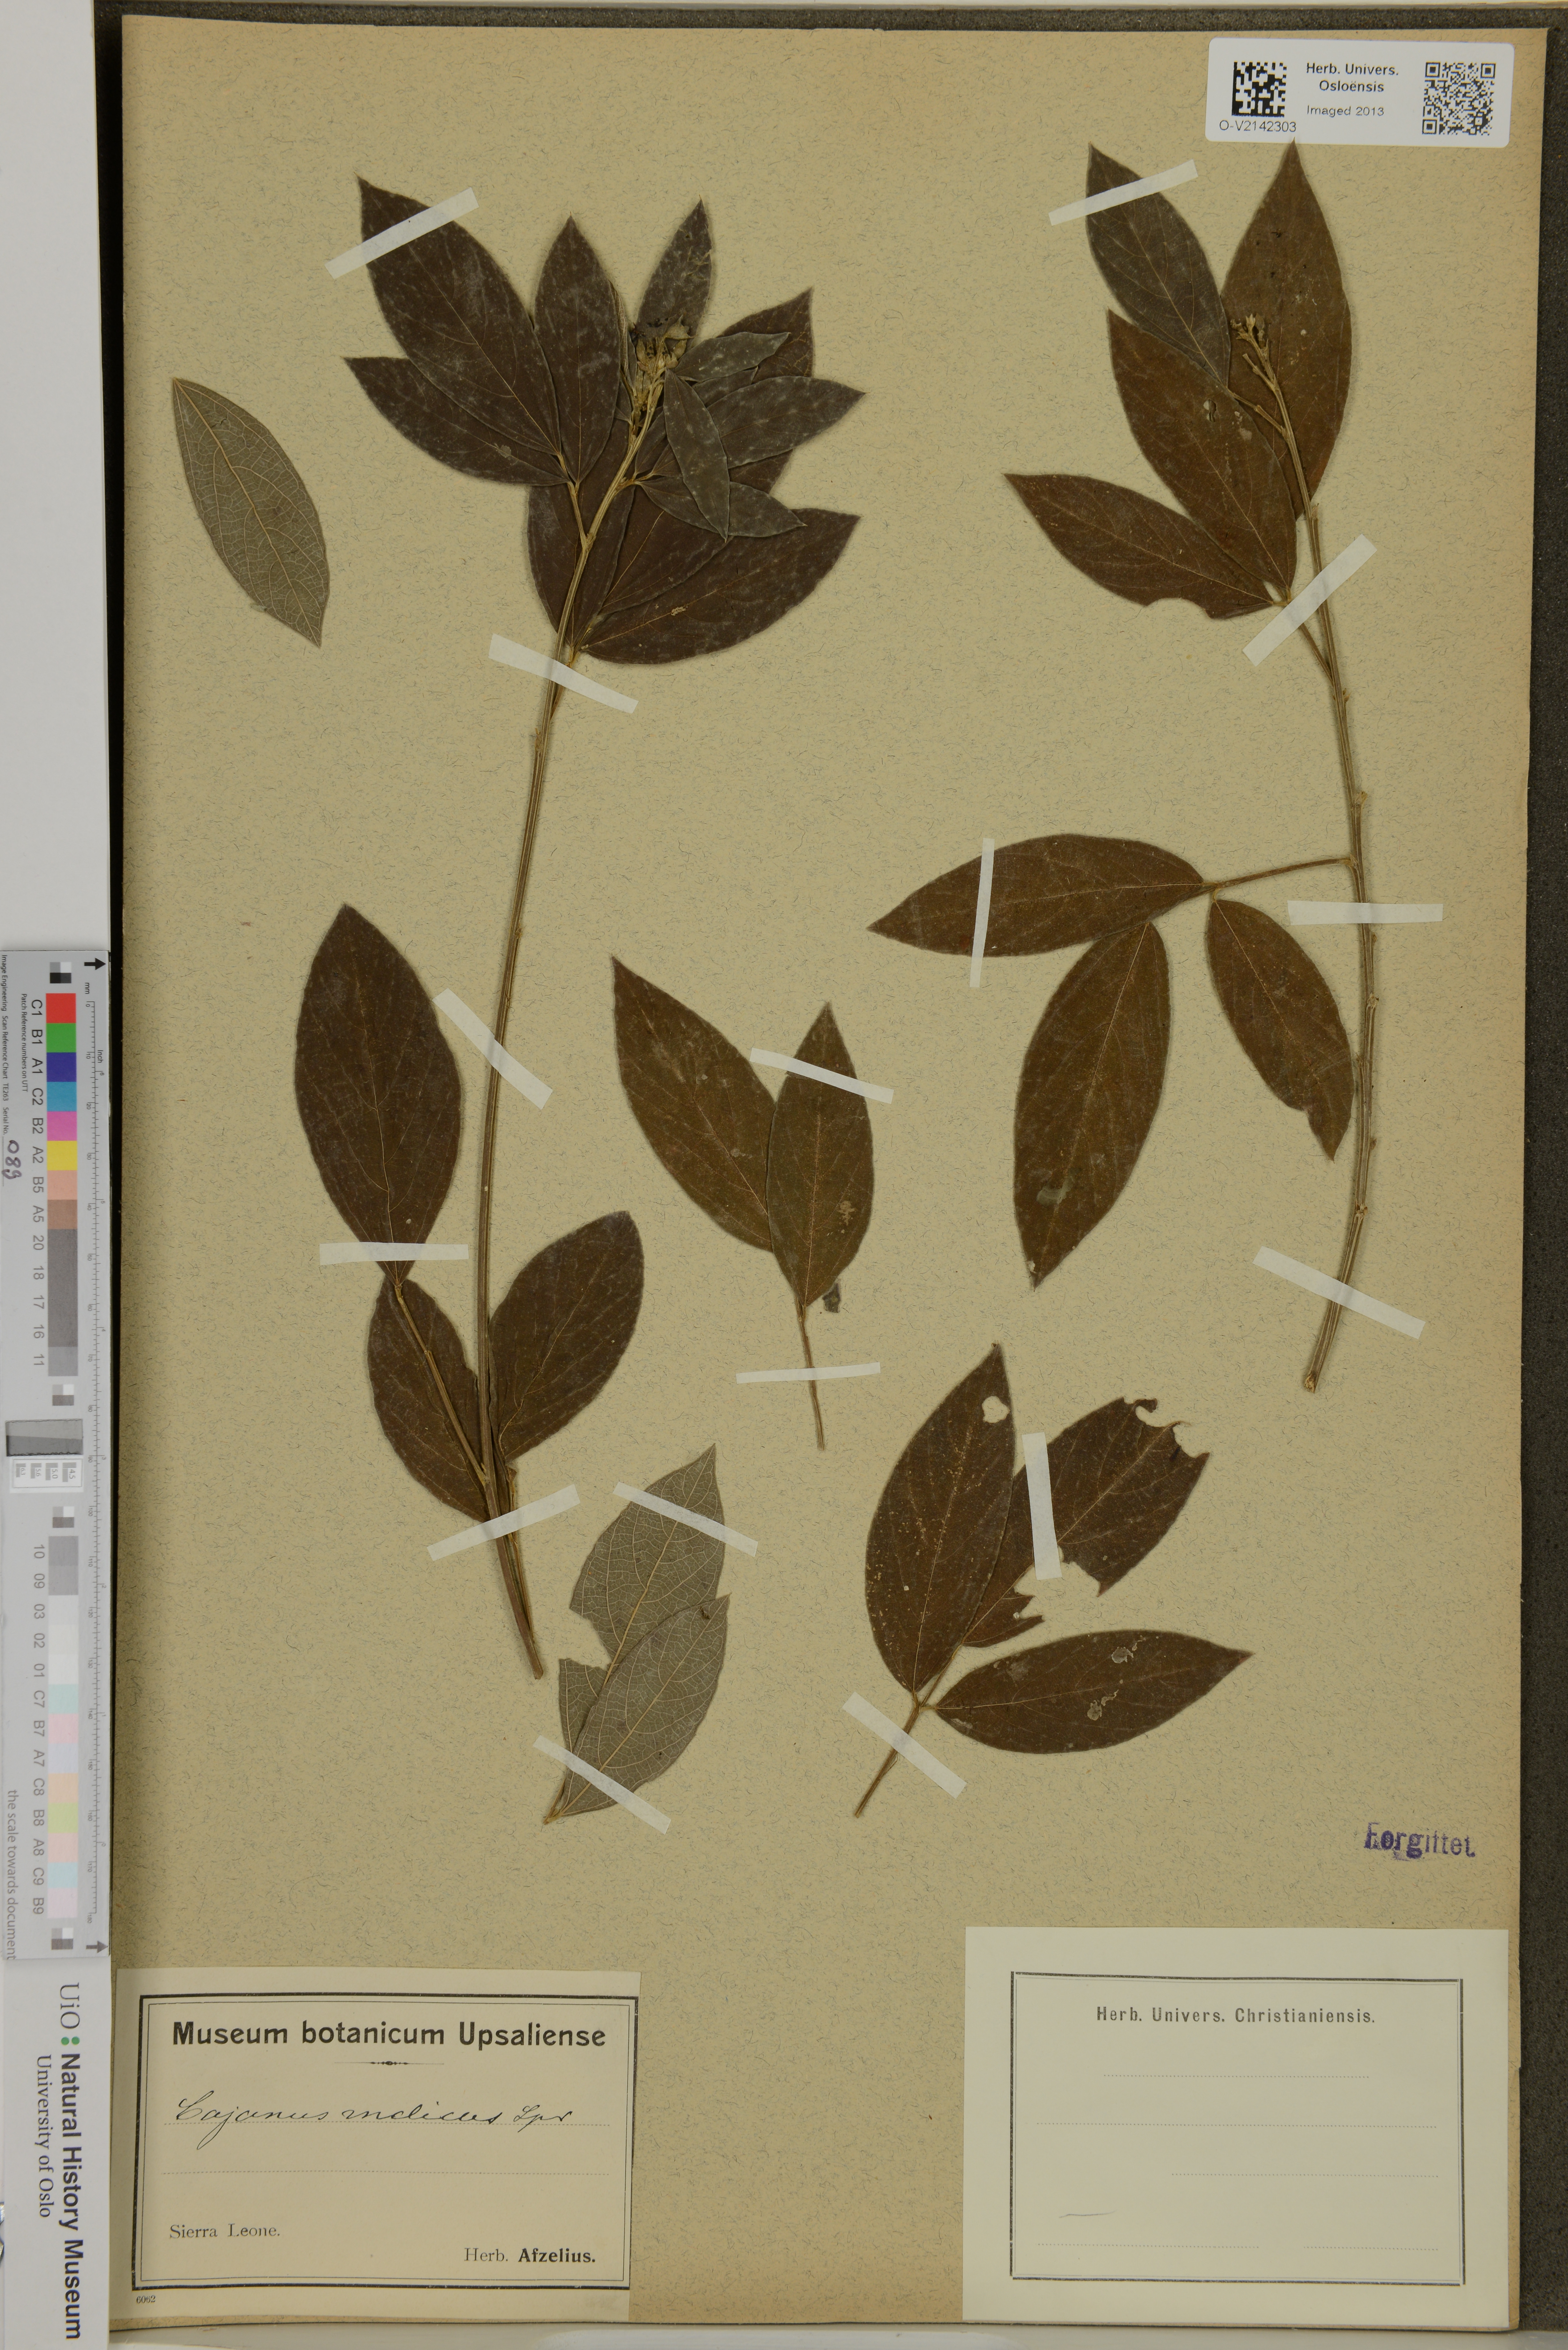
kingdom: Plantae
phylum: Tracheophyta
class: Magnoliopsida
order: Fabales
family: Fabaceae
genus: Cajanus
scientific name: Cajanus cajan
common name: Pigeonpea
